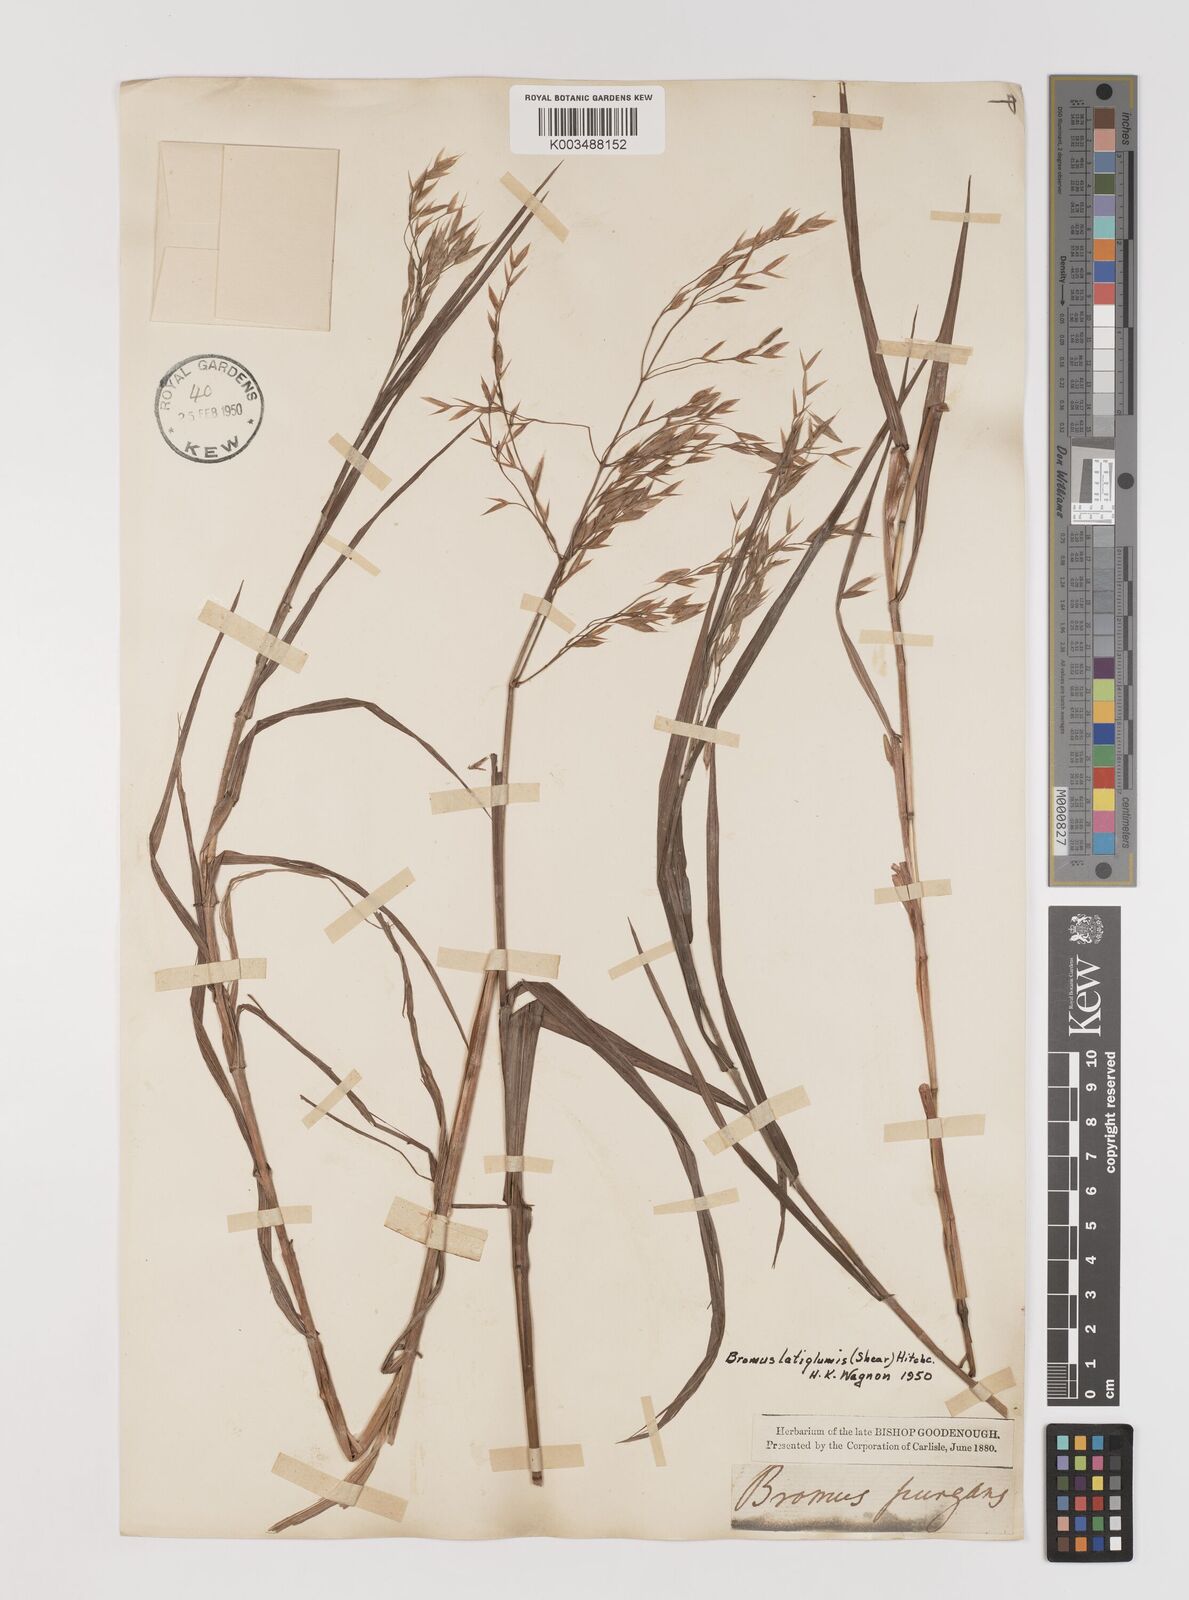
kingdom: Plantae
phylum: Tracheophyta
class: Liliopsida
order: Poales
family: Poaceae
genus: Bromus
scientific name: Bromus latiglumis
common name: Broad-glumed brome
